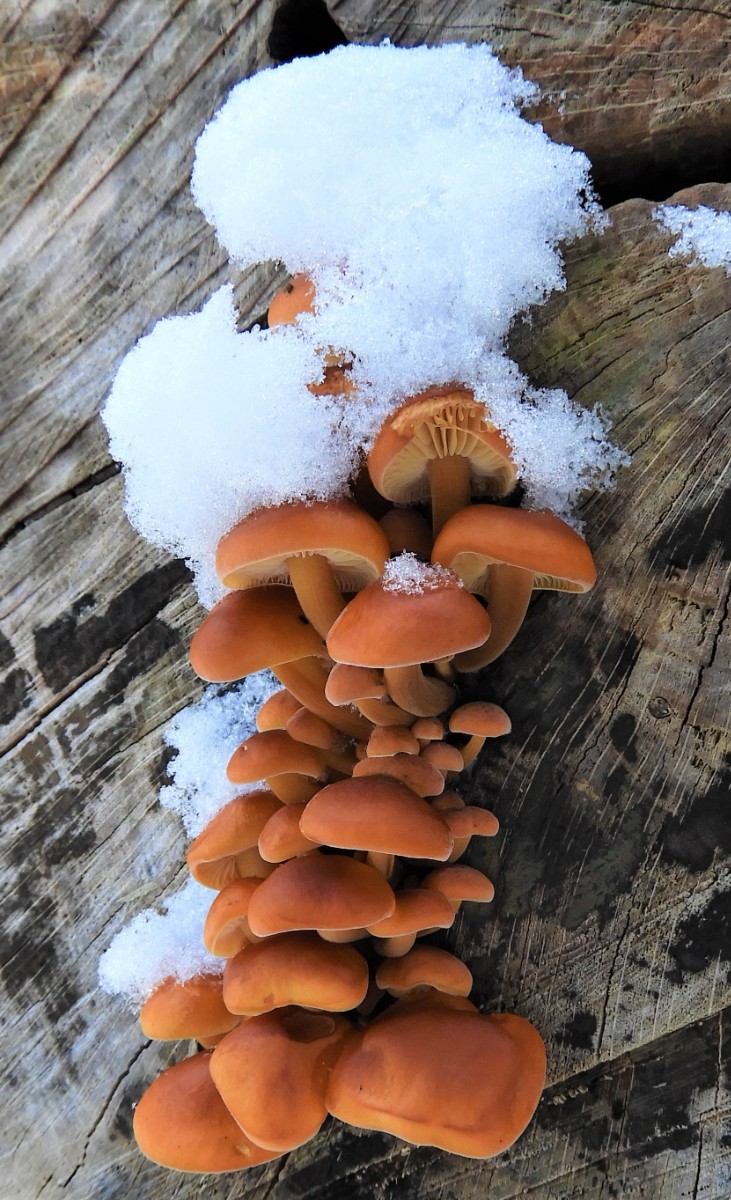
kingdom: Fungi
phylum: Basidiomycota
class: Agaricomycetes
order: Agaricales
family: Physalacriaceae
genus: Flammulina
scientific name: Flammulina velutipes
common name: gul fløjlsfod
